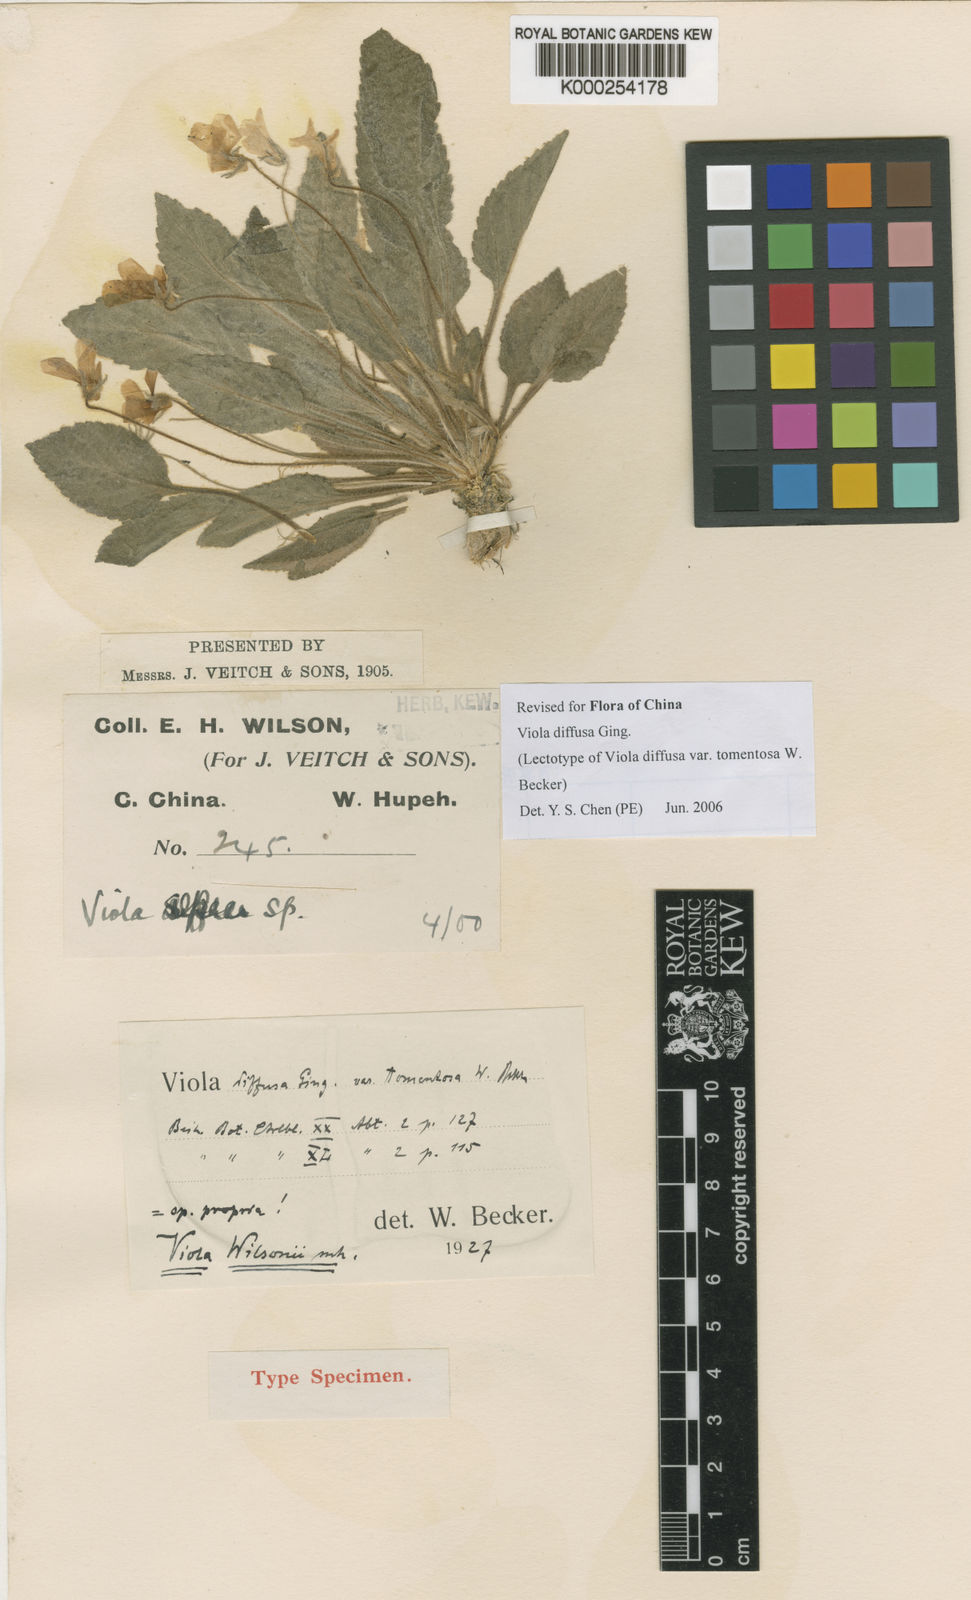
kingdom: Plantae
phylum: Tracheophyta
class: Magnoliopsida
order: Malpighiales
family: Violaceae
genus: Viola
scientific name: Viola diffusa
